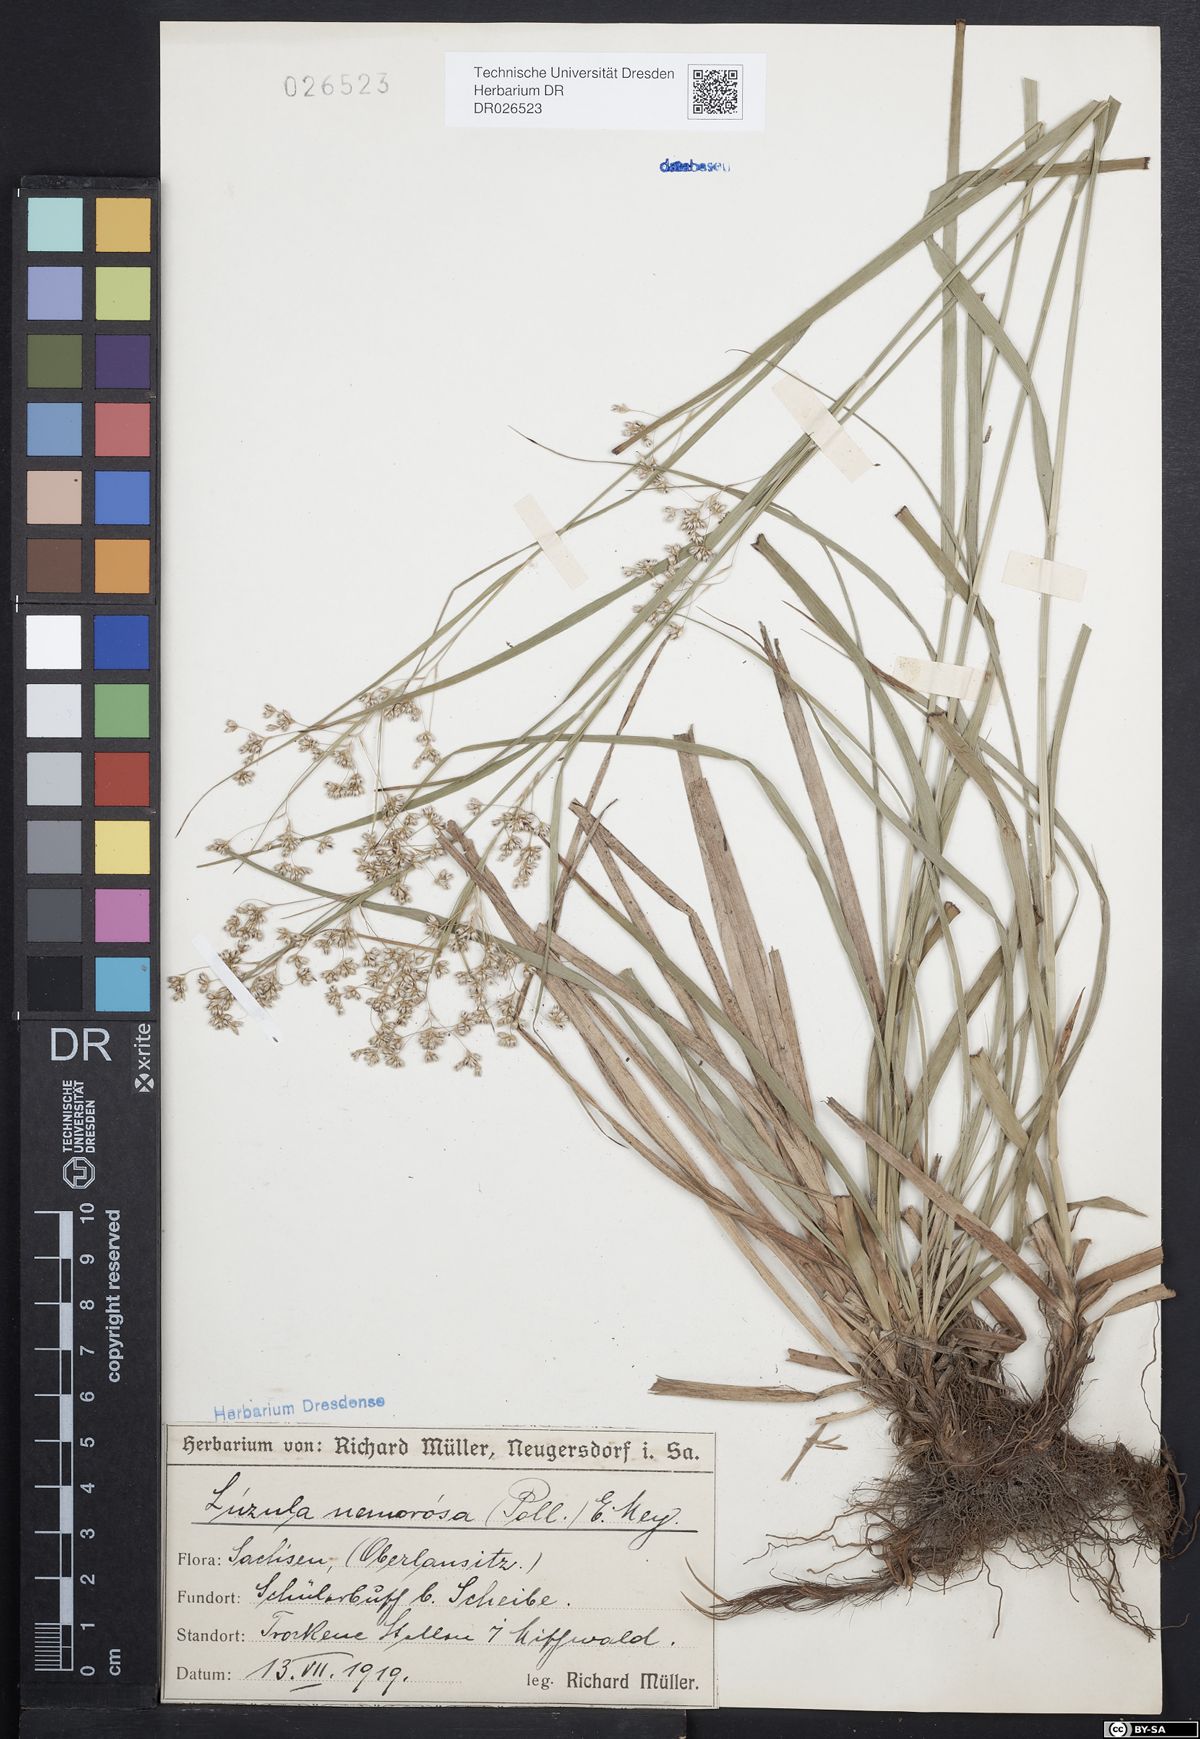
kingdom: Plantae
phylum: Tracheophyta
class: Liliopsida
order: Poales
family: Juncaceae
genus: Luzula
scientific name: Luzula luzuloides
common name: White wood-rush
